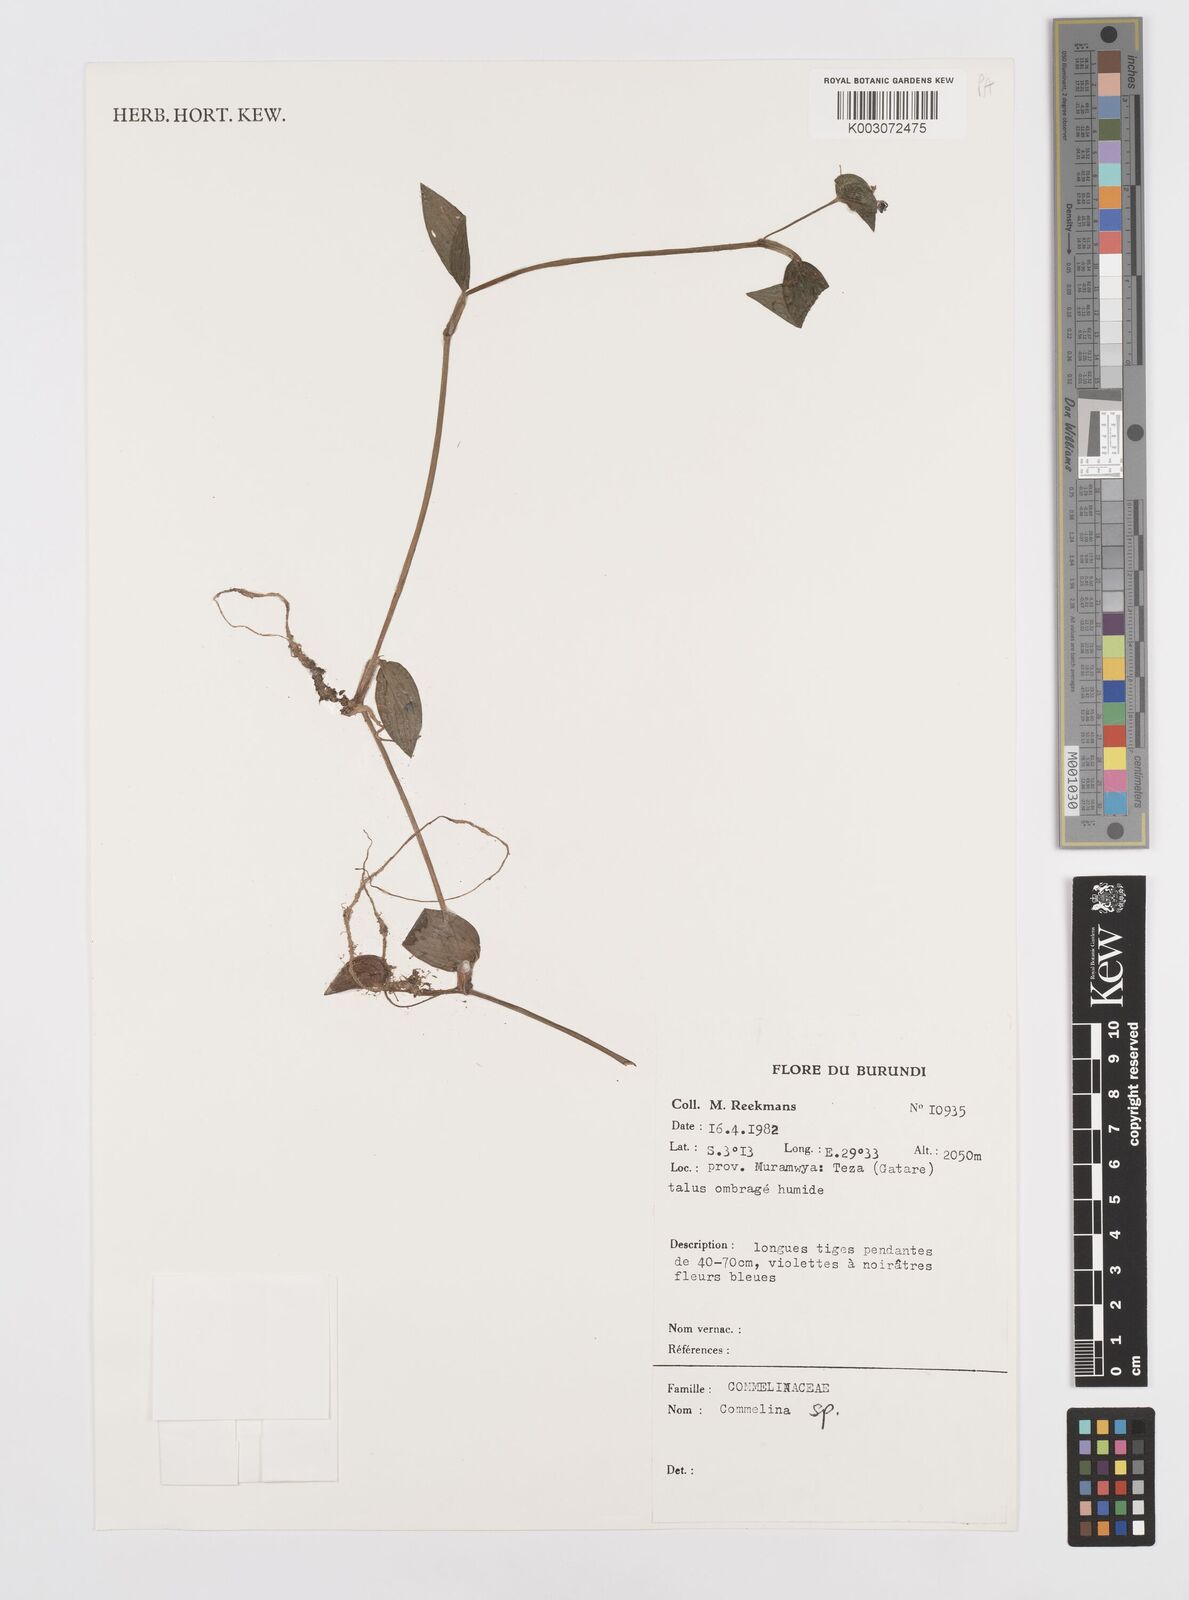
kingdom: Plantae
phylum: Tracheophyta
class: Liliopsida
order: Commelinales
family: Commelinaceae
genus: Commelina
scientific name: Commelina
